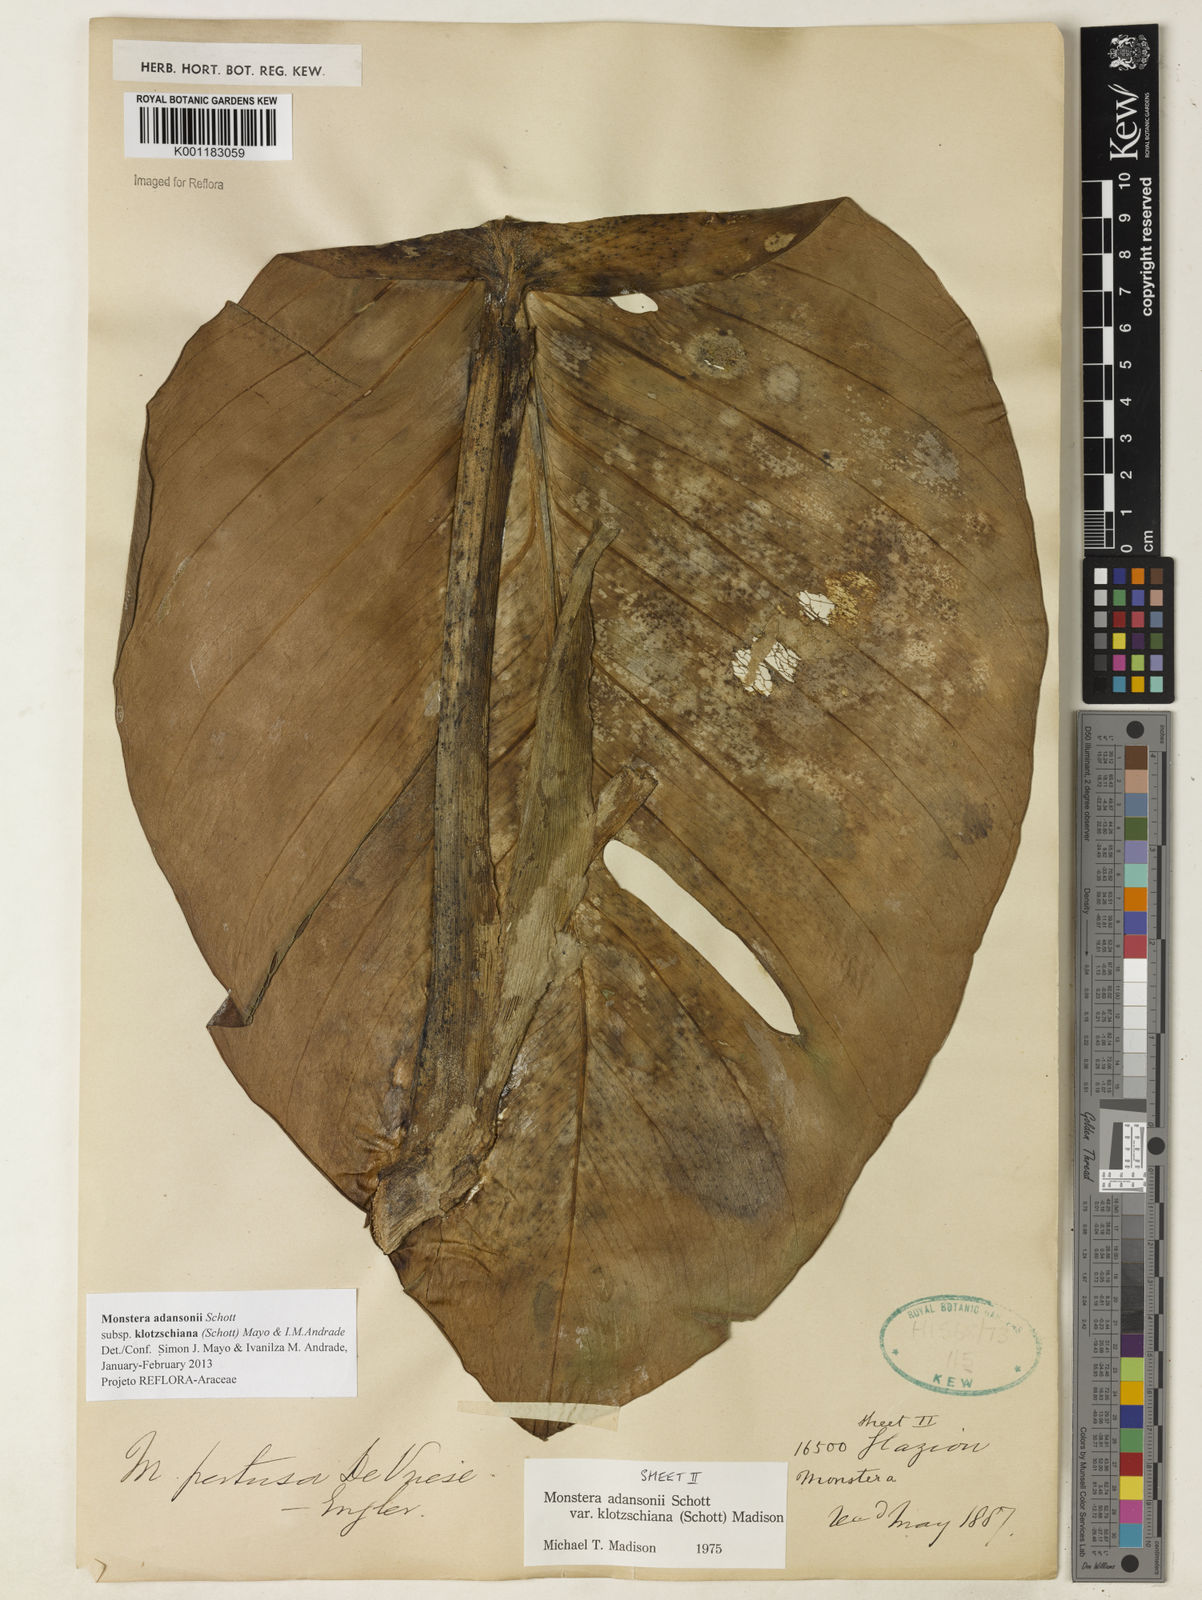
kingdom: Plantae
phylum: Tracheophyta
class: Liliopsida
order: Alismatales
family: Araceae
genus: Monstera
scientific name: Monstera adansonii
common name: Tarovine
